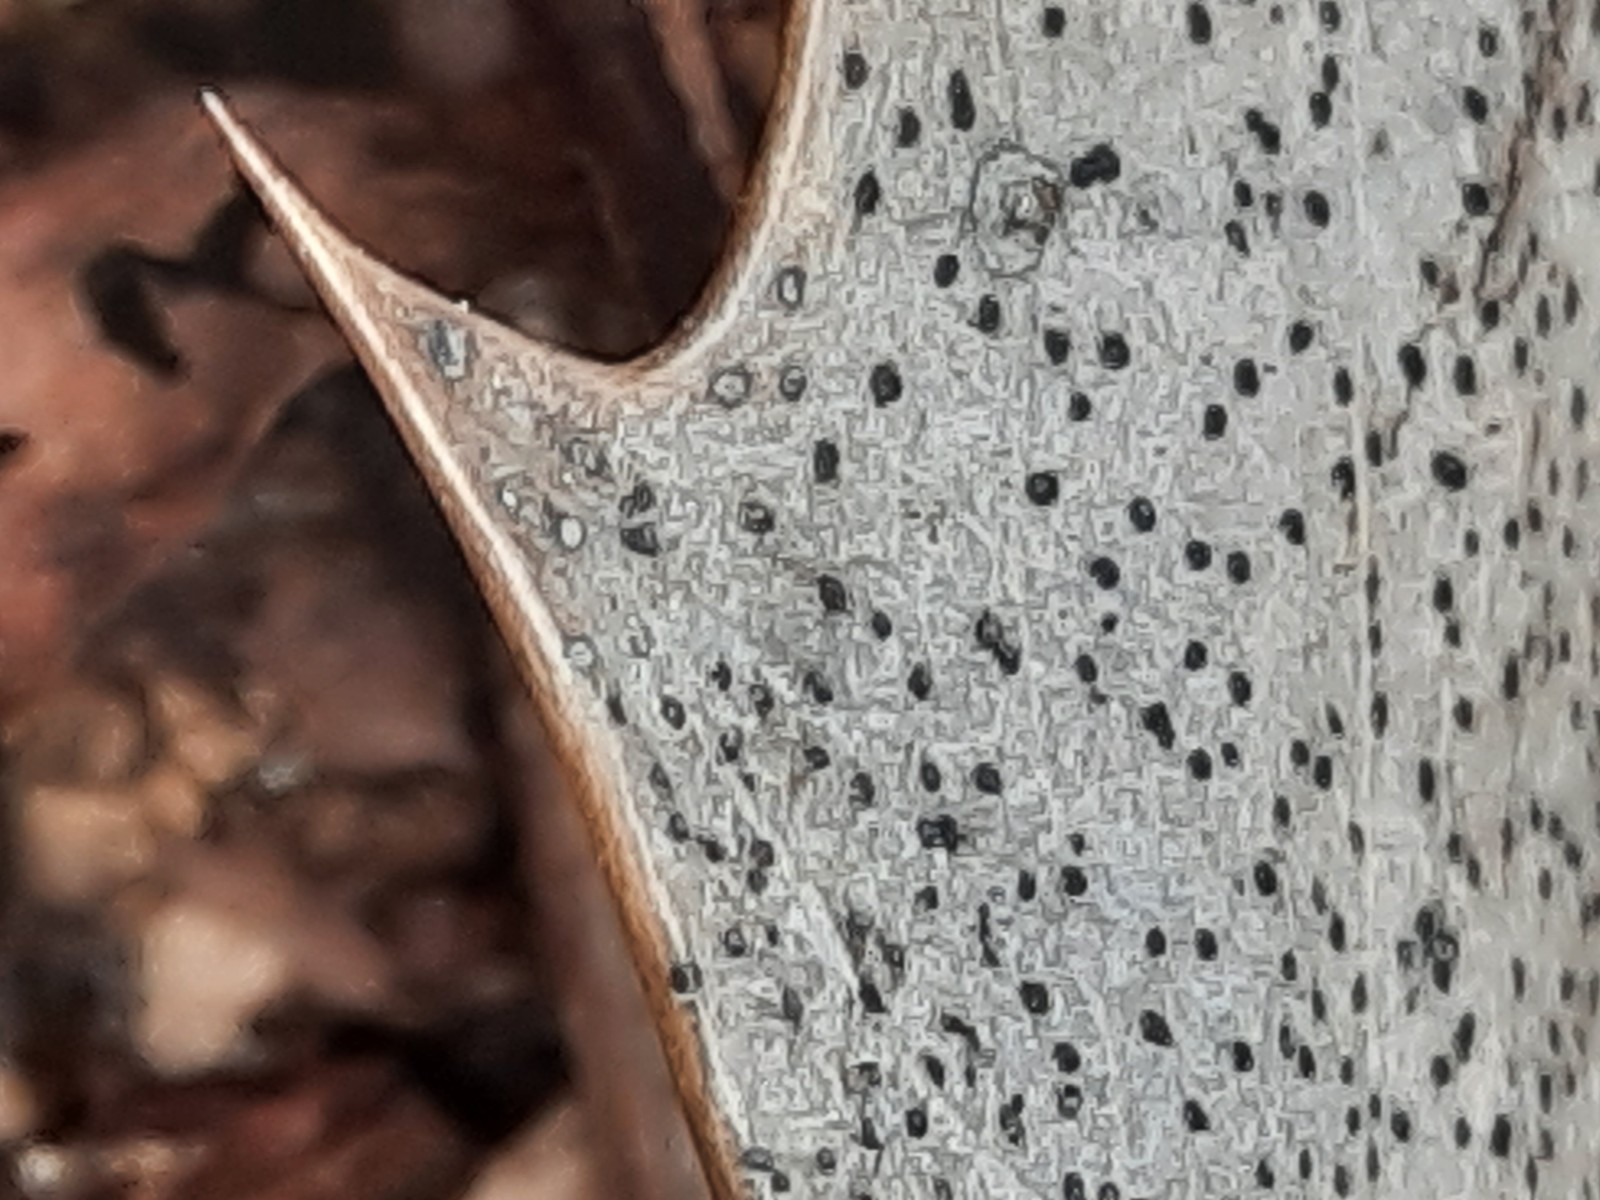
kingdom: Fungi
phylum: Ascomycota
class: Leotiomycetes
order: Helotiales
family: Cenangiaceae
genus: Trochila
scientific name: Trochila ilicina
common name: kristtorn-lågskive
